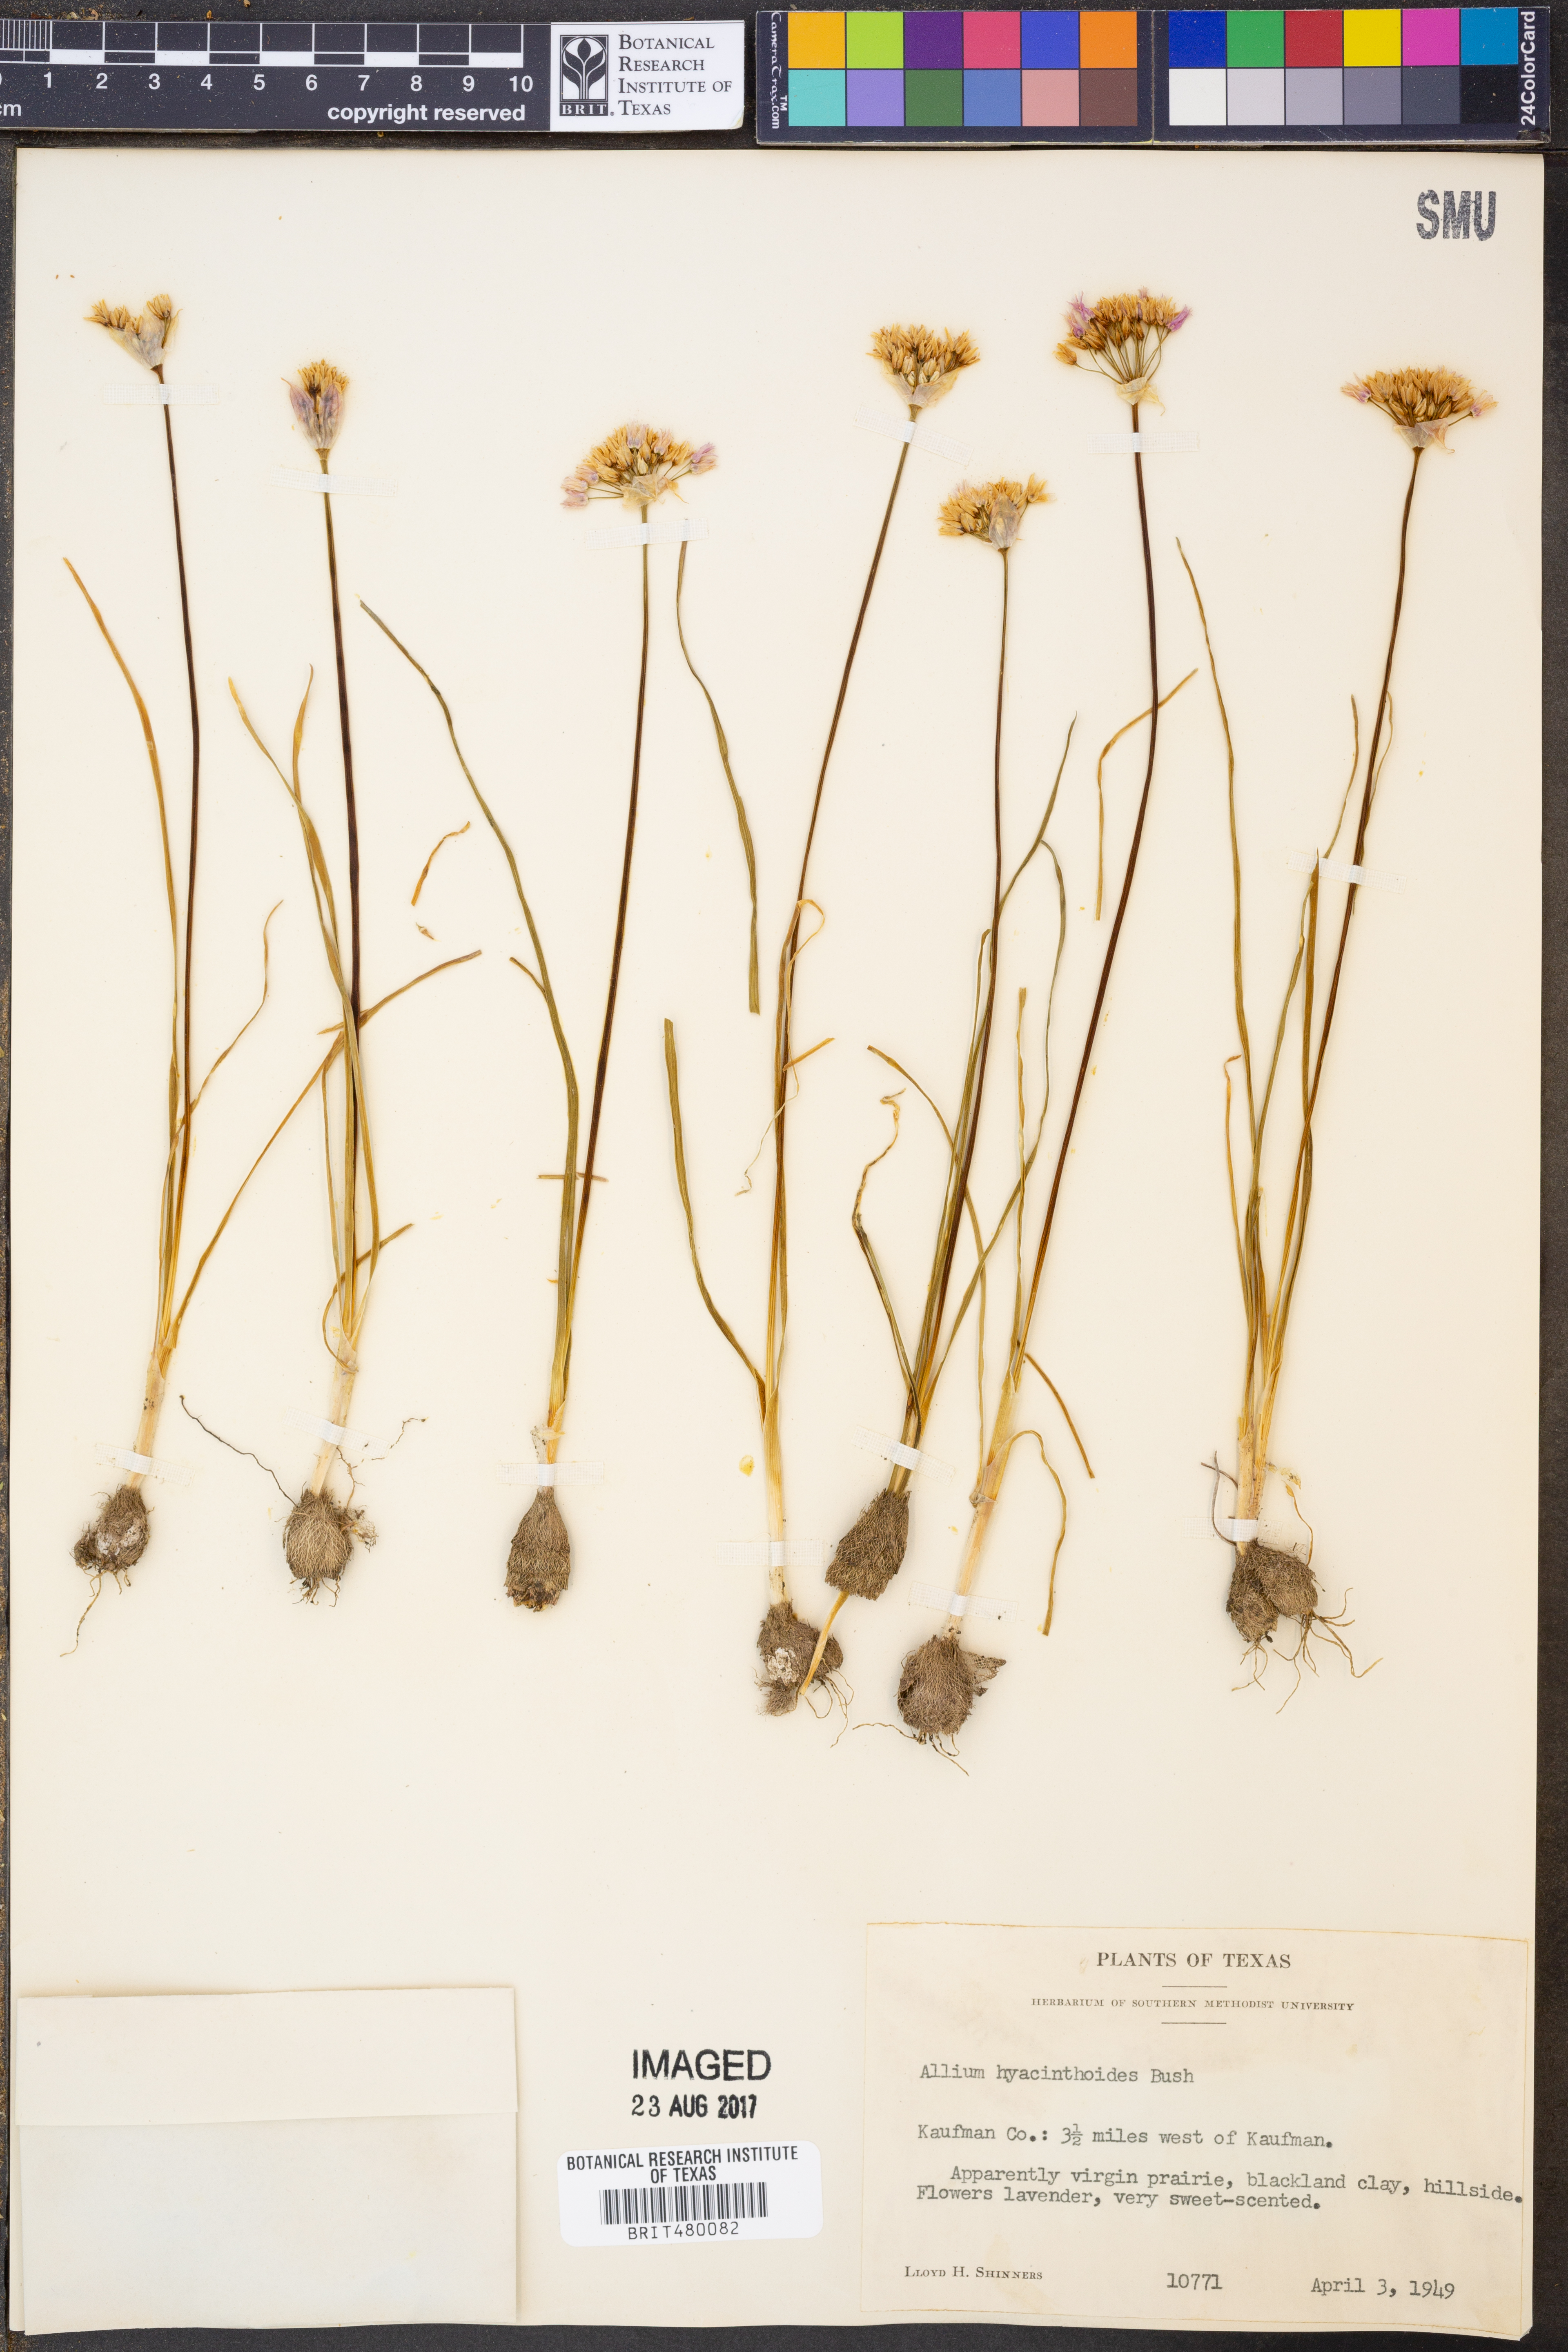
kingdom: Plantae
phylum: Tracheophyta
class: Liliopsida
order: Asparagales
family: Amaryllidaceae
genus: Allium
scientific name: Allium canadense
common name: Meadow garlic
